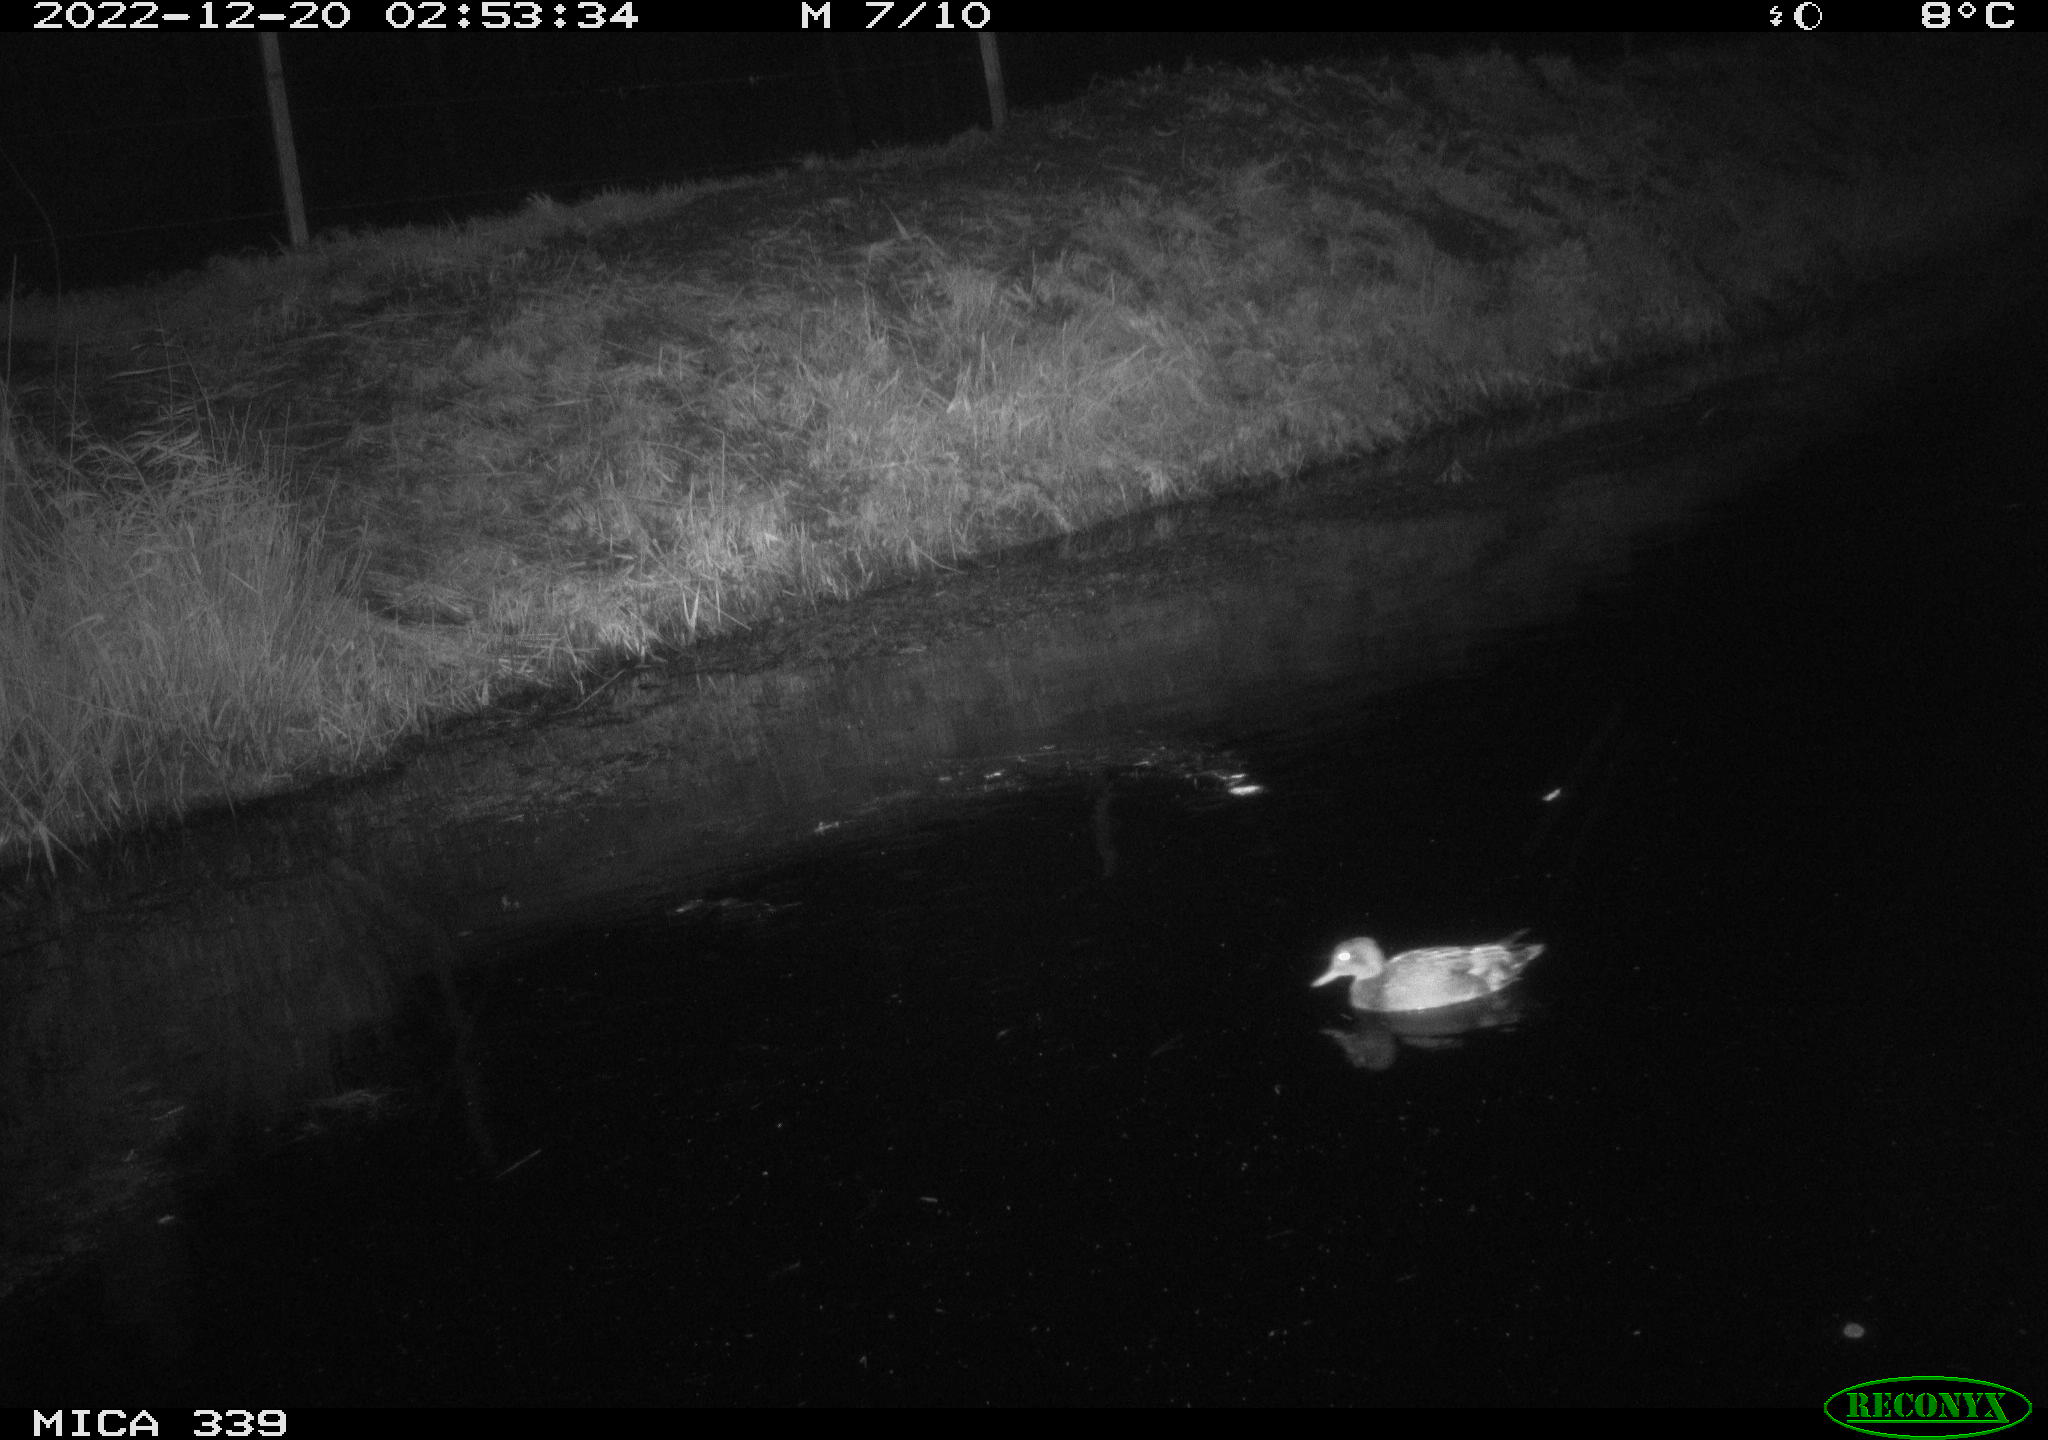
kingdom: Animalia
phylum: Chordata
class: Aves
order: Anseriformes
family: Anatidae
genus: Anas
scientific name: Anas
